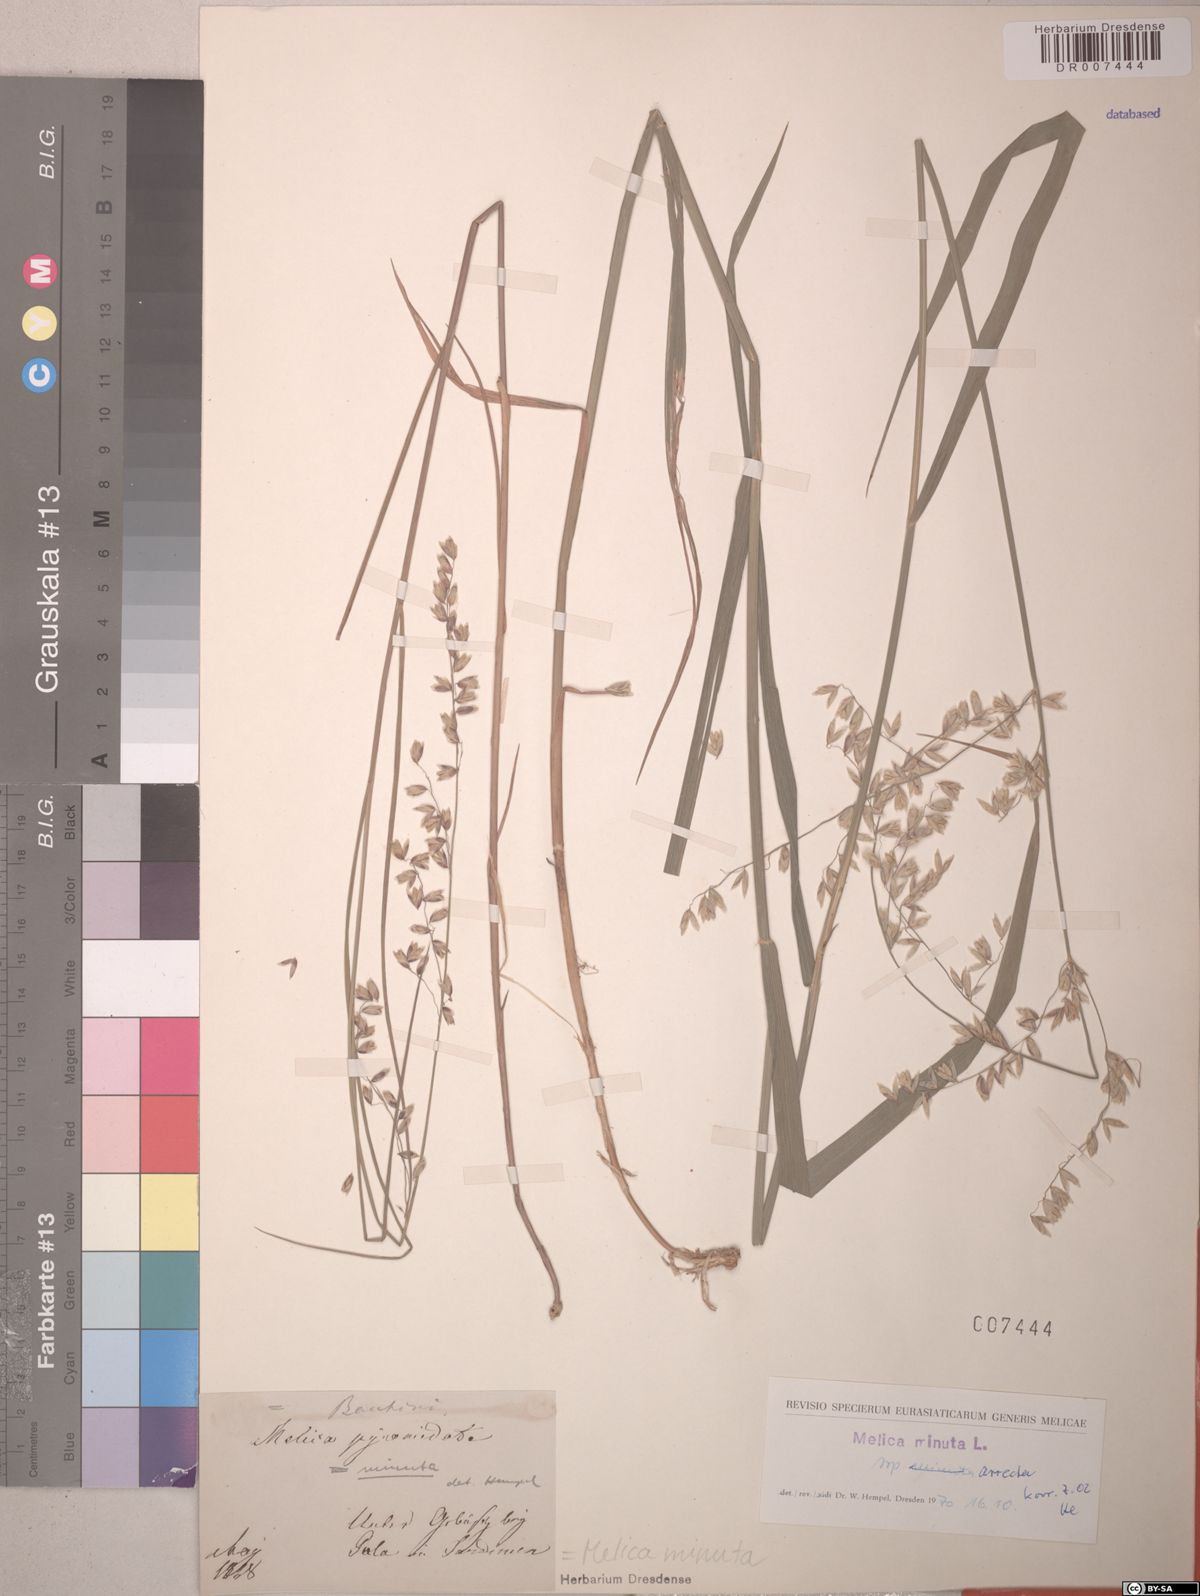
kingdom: Plantae
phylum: Tracheophyta
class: Liliopsida
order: Poales
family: Poaceae
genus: Melica
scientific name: Melica minuta
